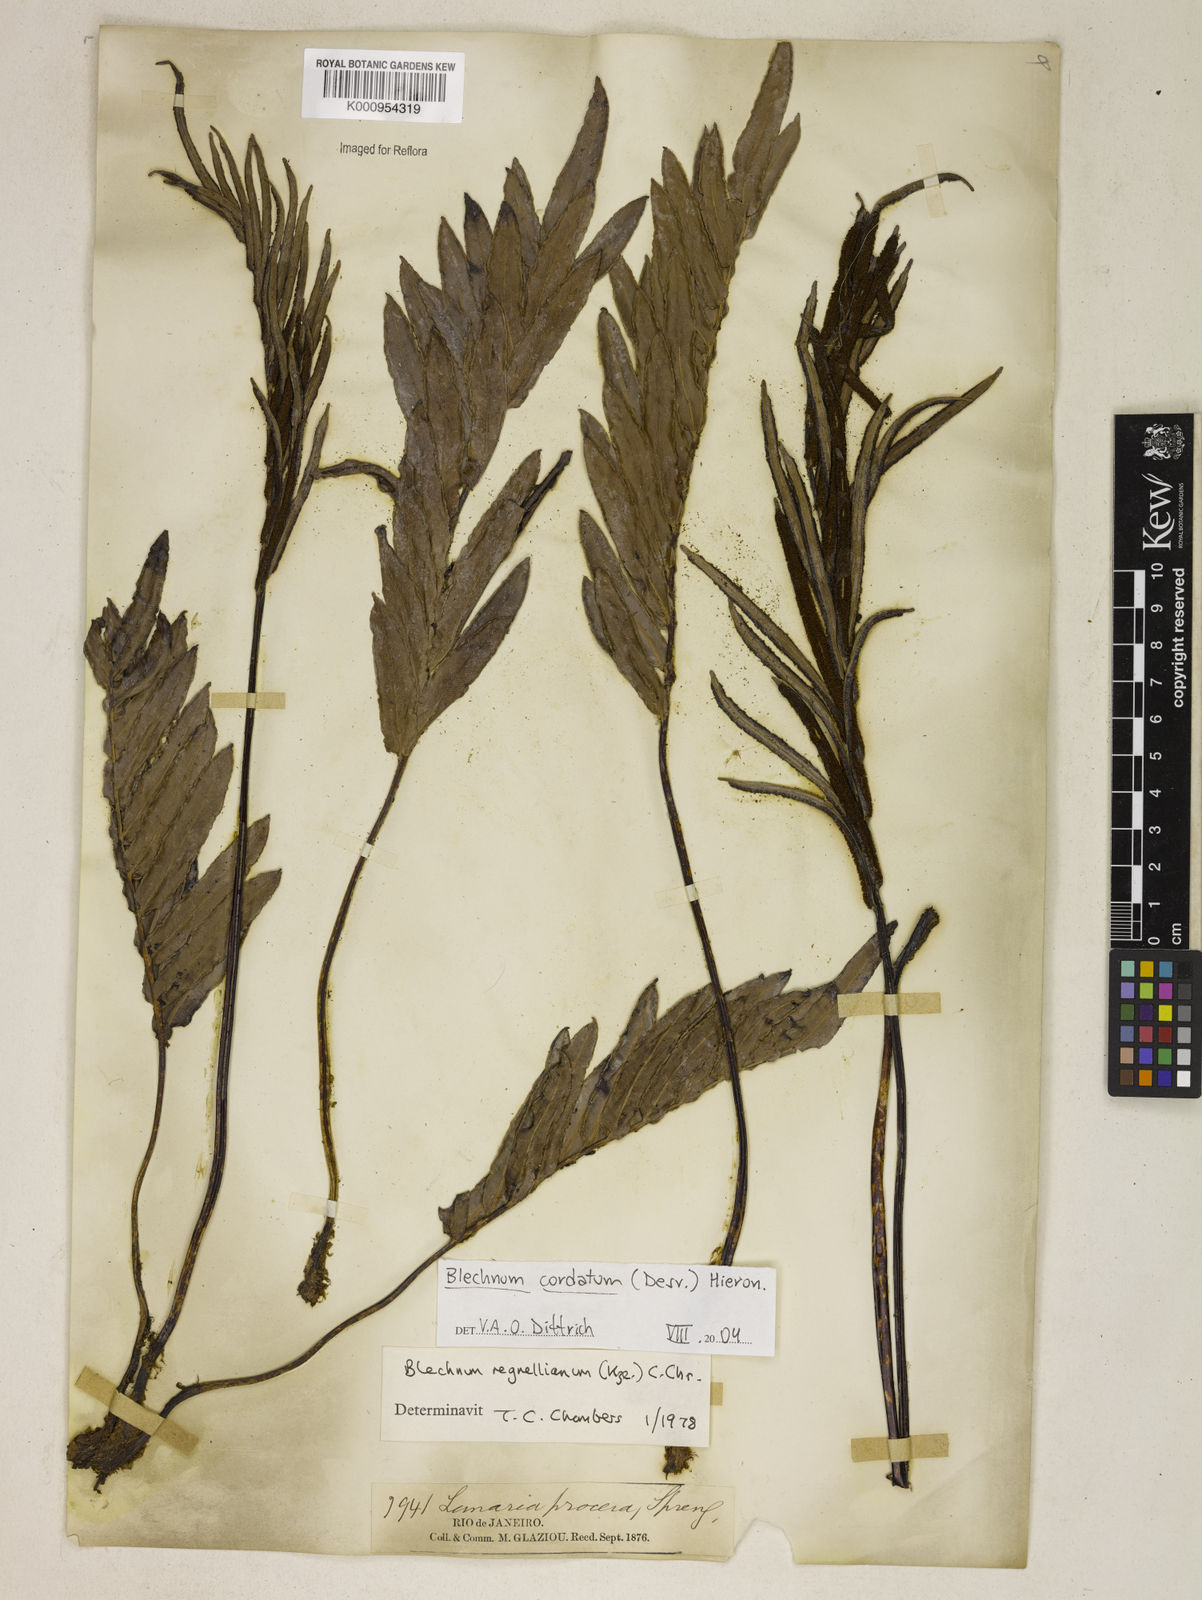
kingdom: Plantae
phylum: Tracheophyta
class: Polypodiopsida
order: Polypodiales
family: Blechnaceae
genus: Parablechnum
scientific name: Parablechnum cordatum
